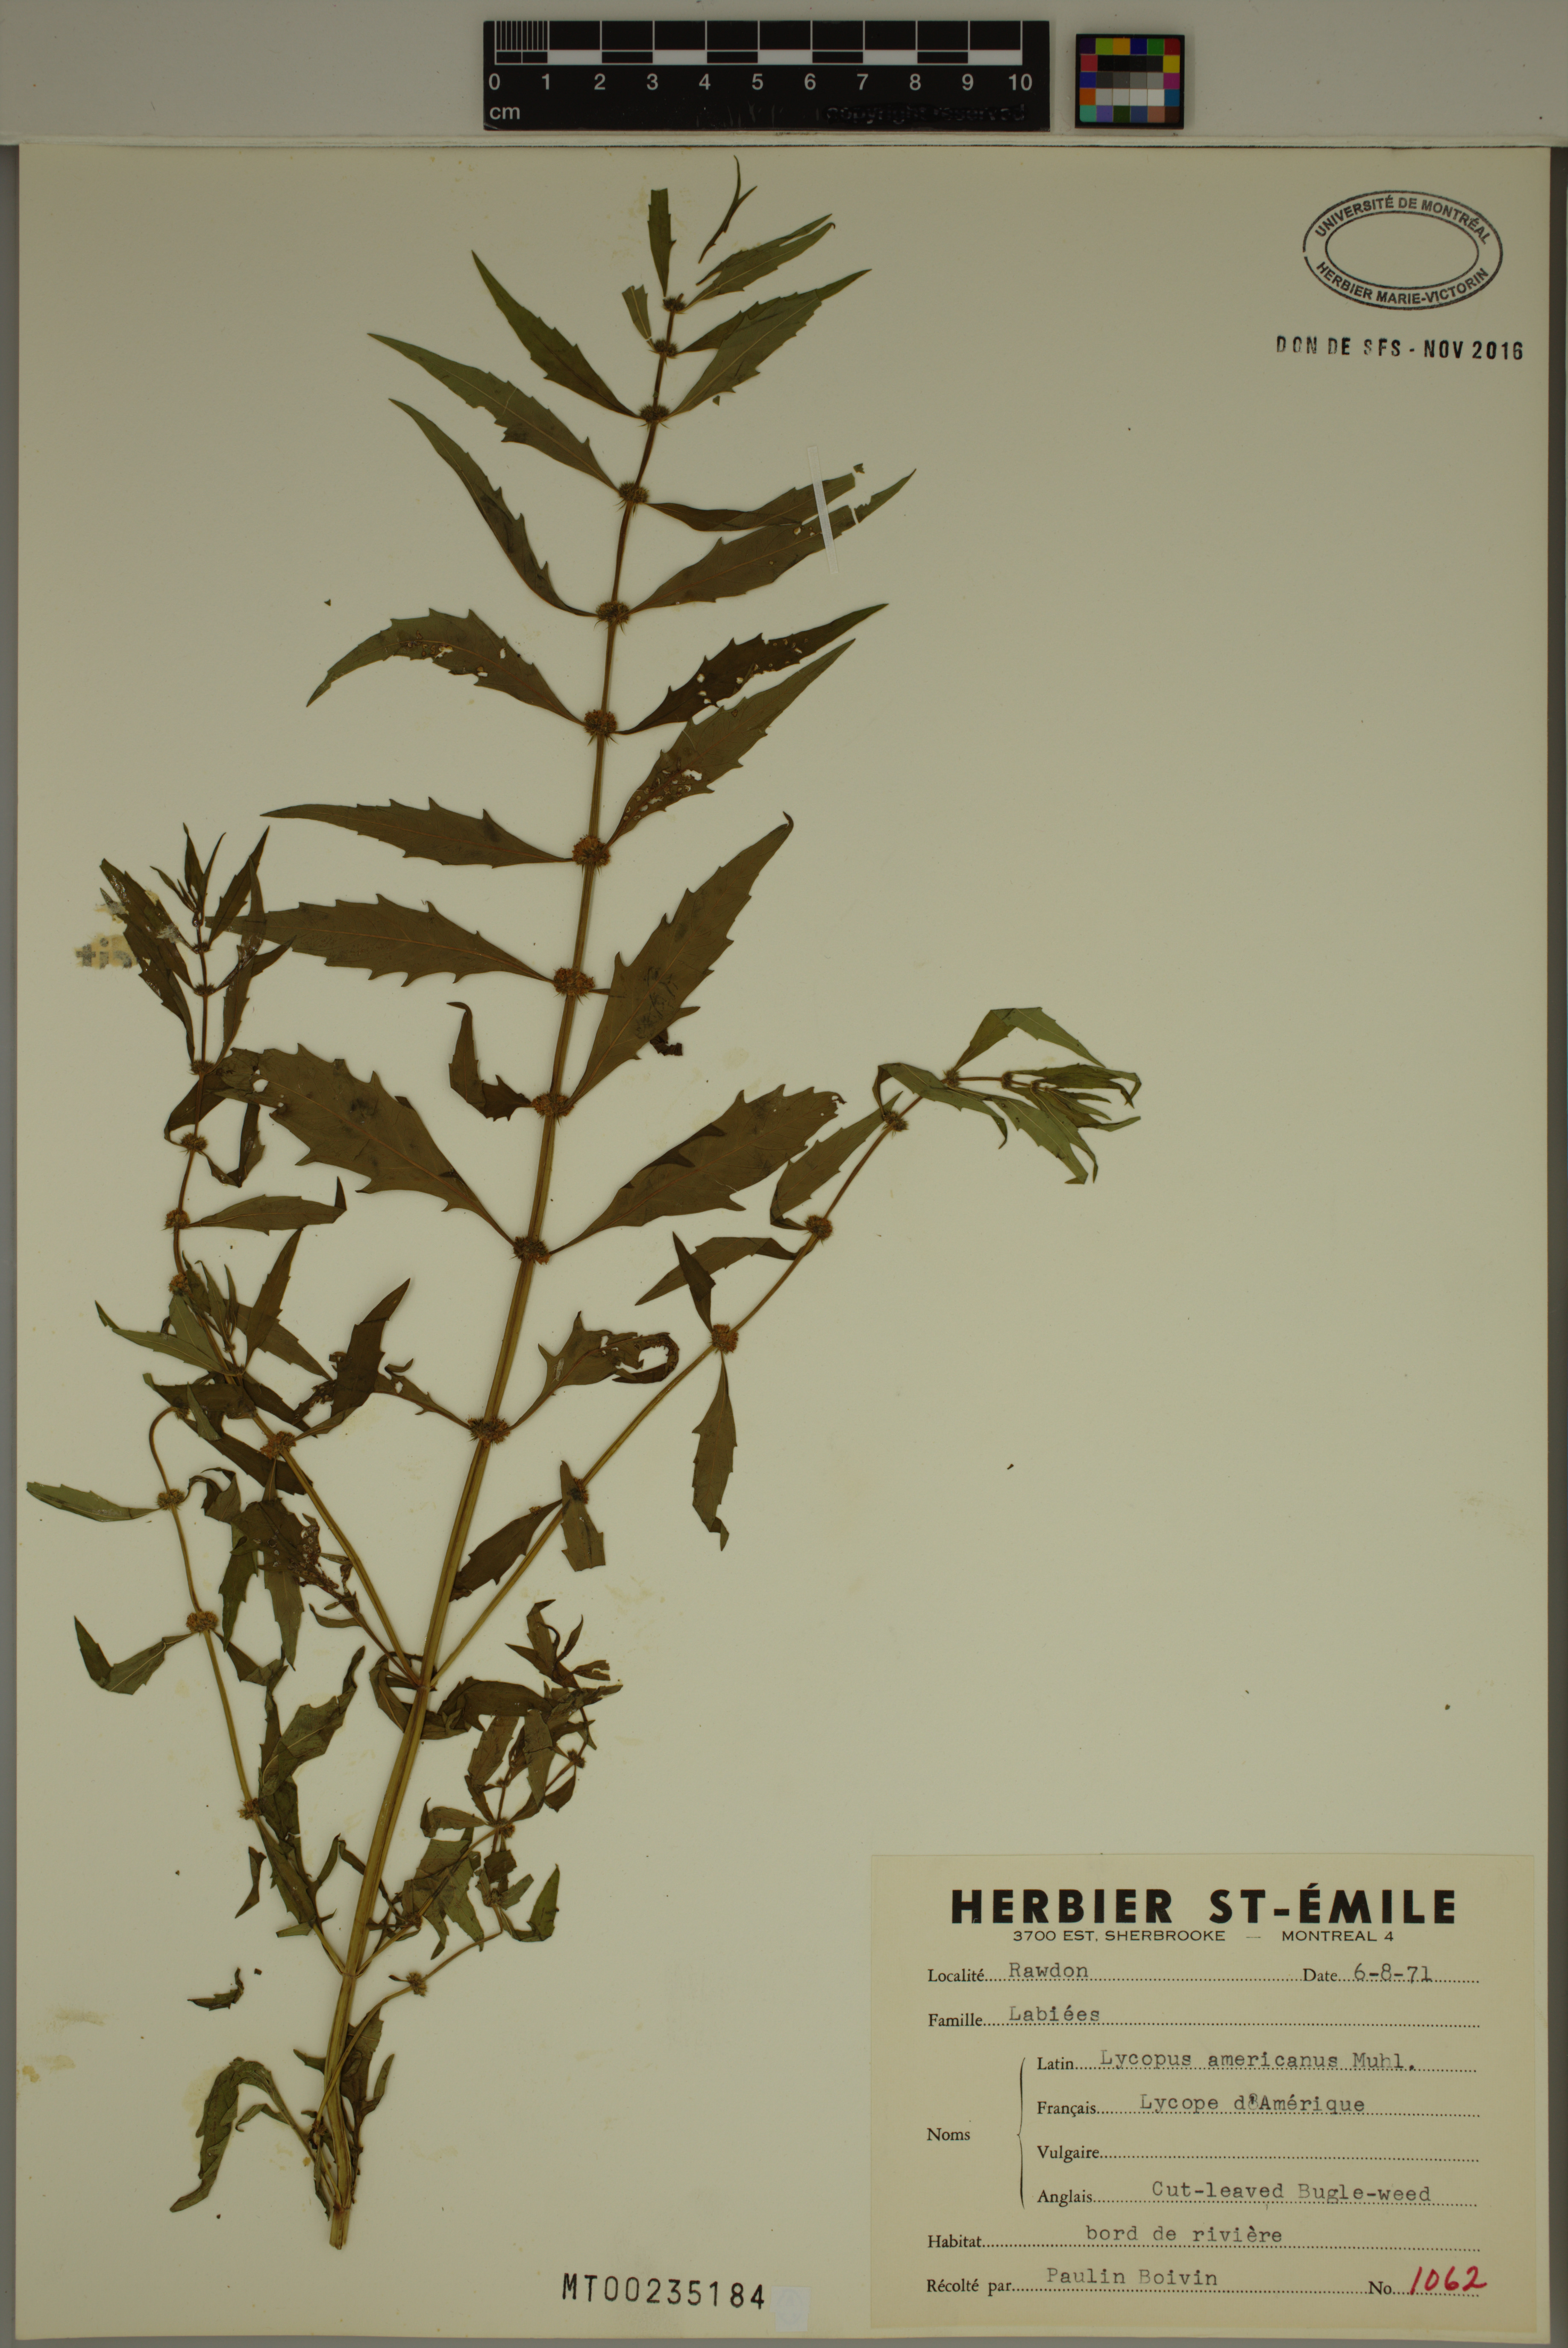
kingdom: Plantae
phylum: Tracheophyta
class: Magnoliopsida
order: Lamiales
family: Lamiaceae
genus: Lycopus
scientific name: Lycopus americanus
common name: American bugleweed
